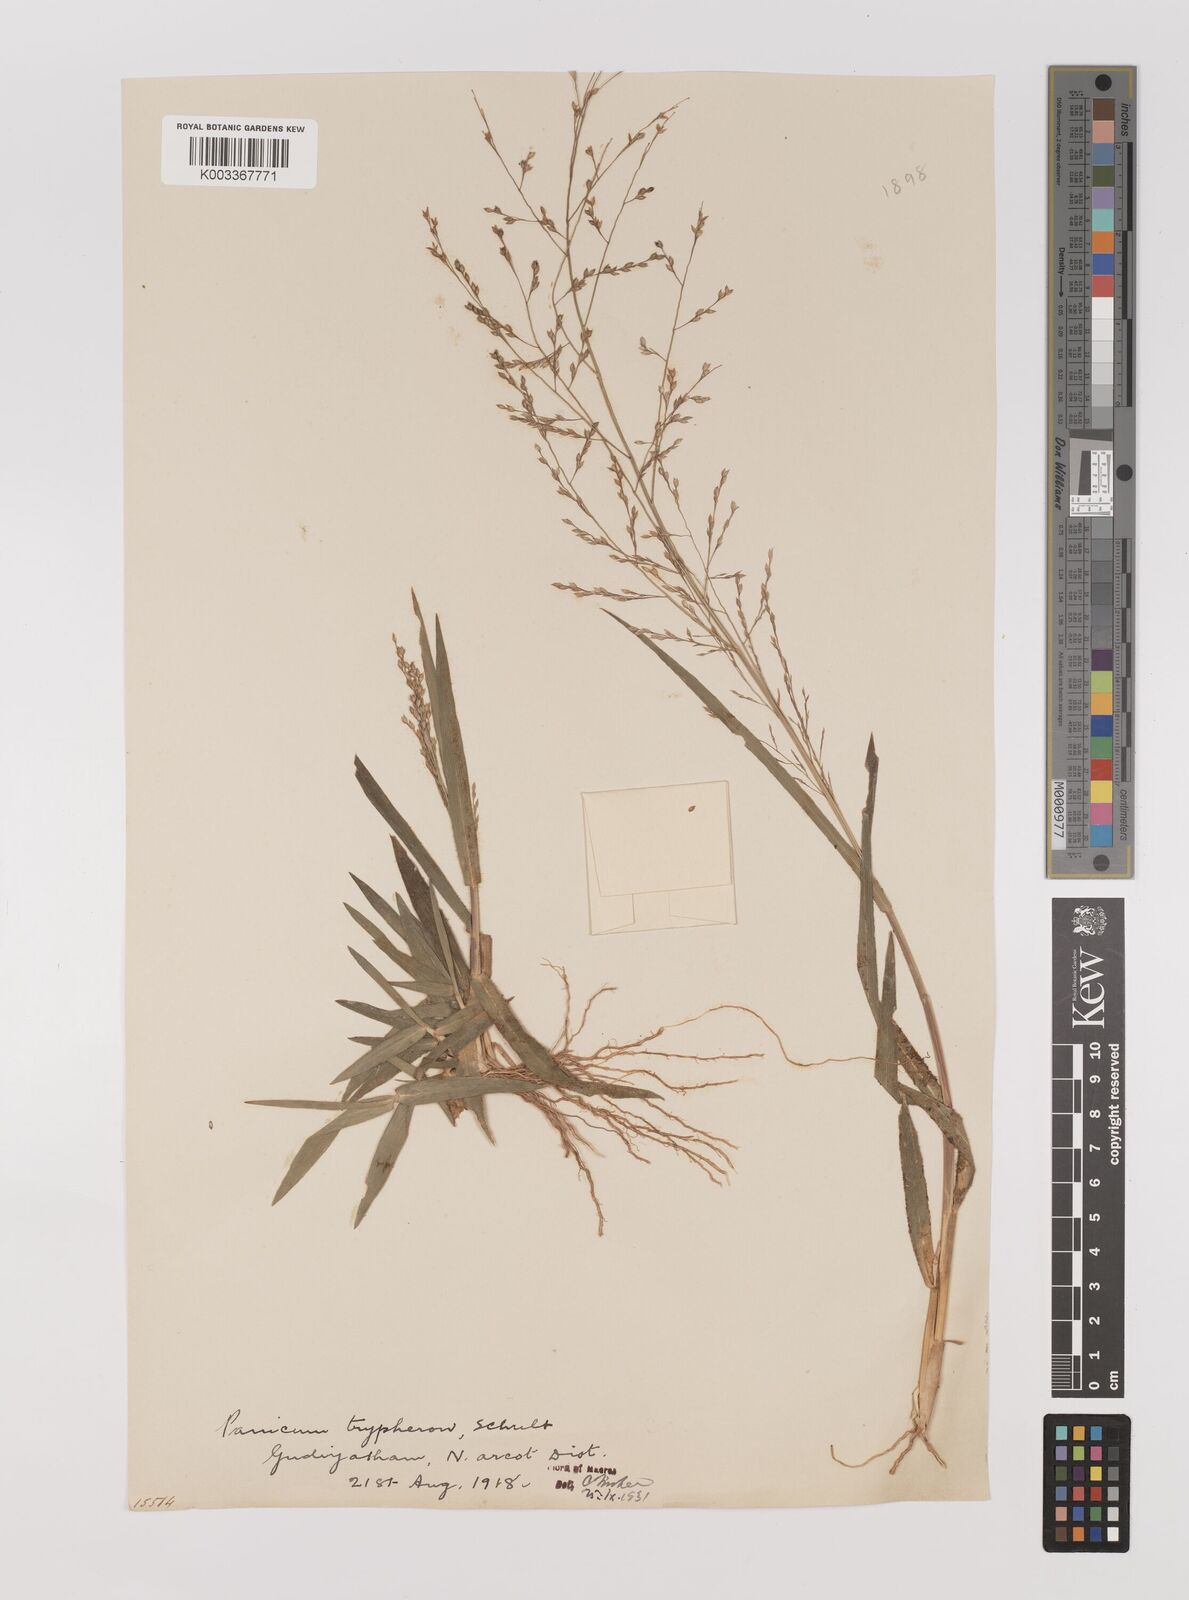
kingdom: Plantae
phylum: Tracheophyta
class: Liliopsida
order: Poales
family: Poaceae
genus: Panicum
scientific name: Panicum curviflorum
